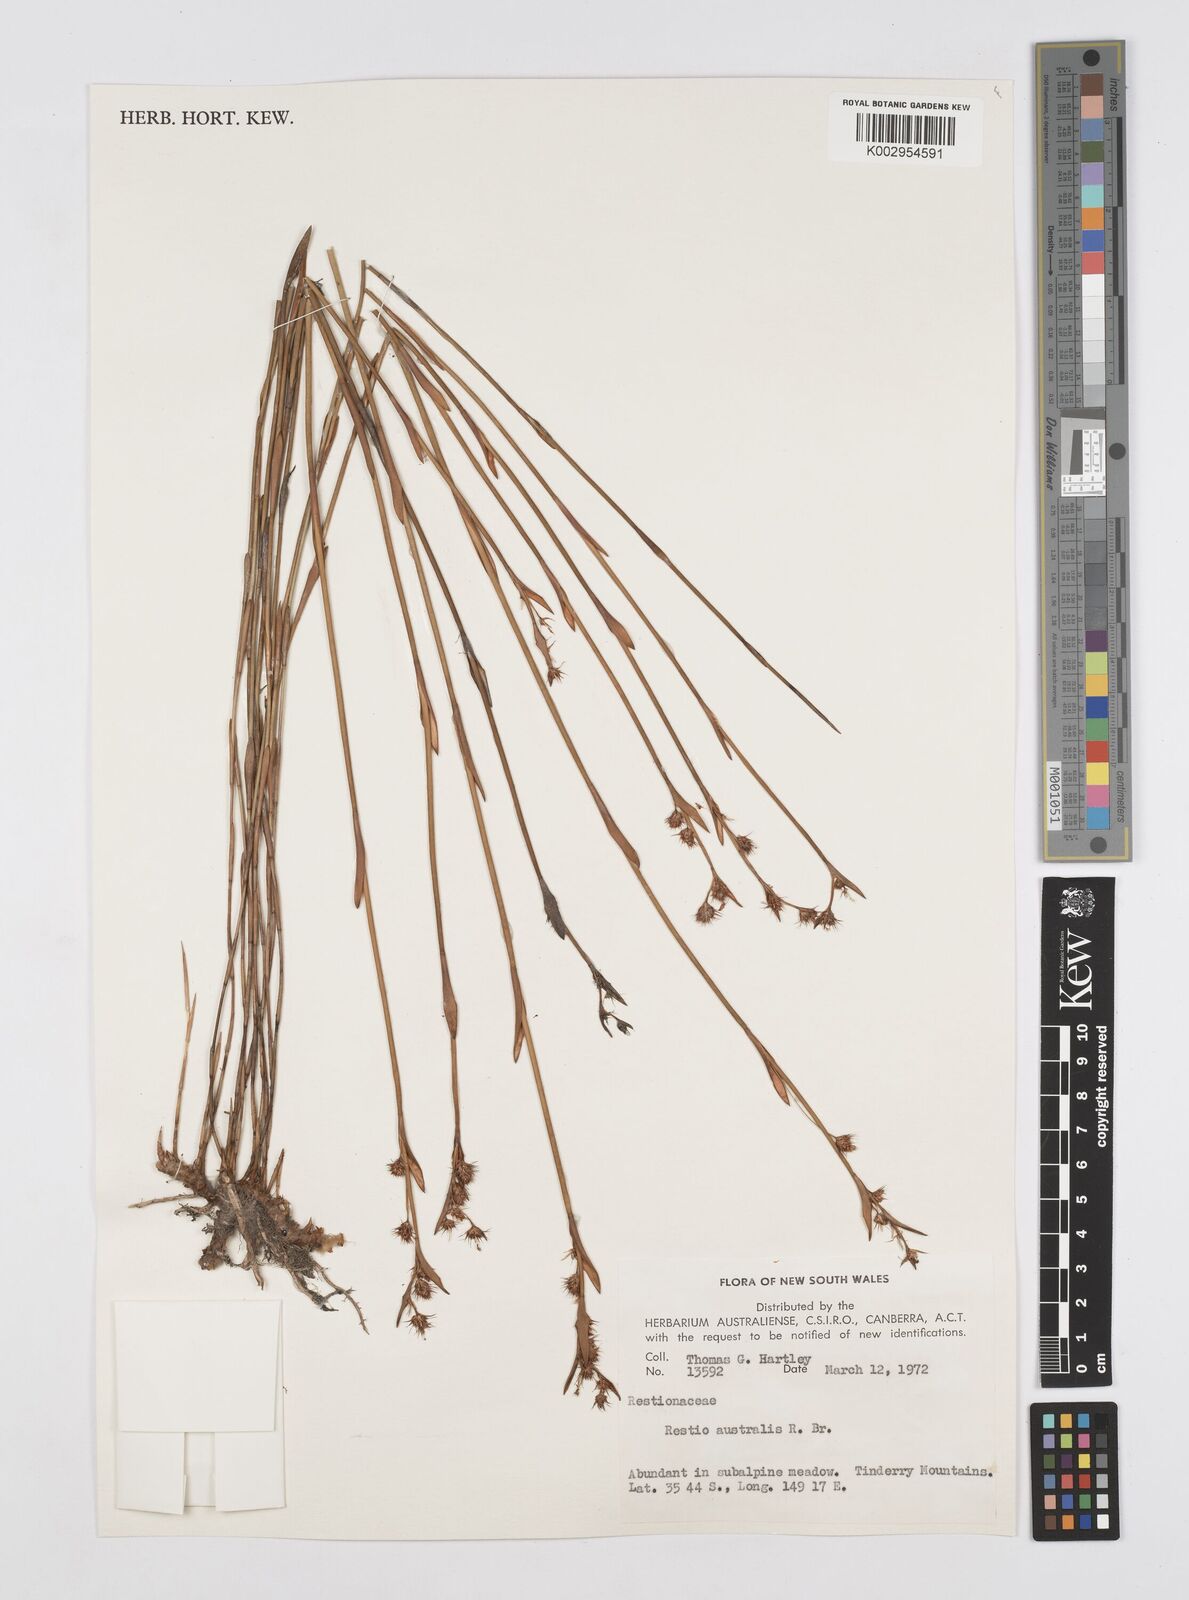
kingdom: Plantae
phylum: Tracheophyta
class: Liliopsida
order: Poales
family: Restionaceae
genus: Baloskion
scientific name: Baloskion australe
